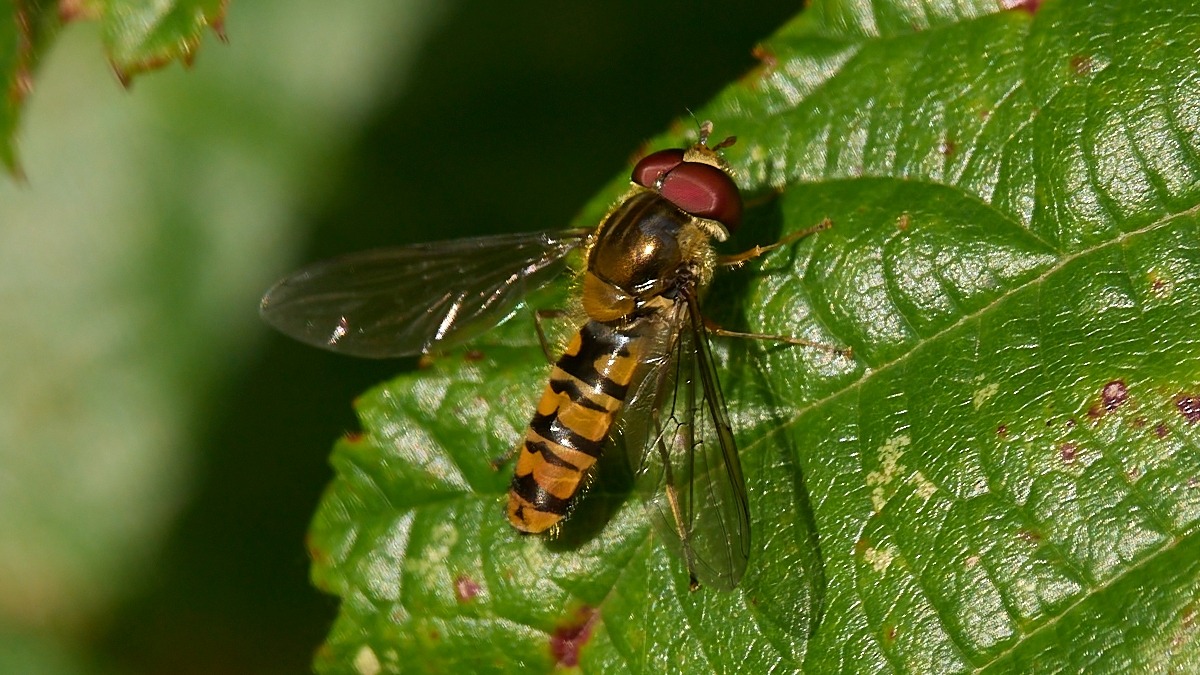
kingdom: Animalia
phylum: Arthropoda
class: Insecta
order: Diptera
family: Syrphidae
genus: Episyrphus
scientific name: Episyrphus balteatus
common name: Dobbeltbåndet svirreflue
